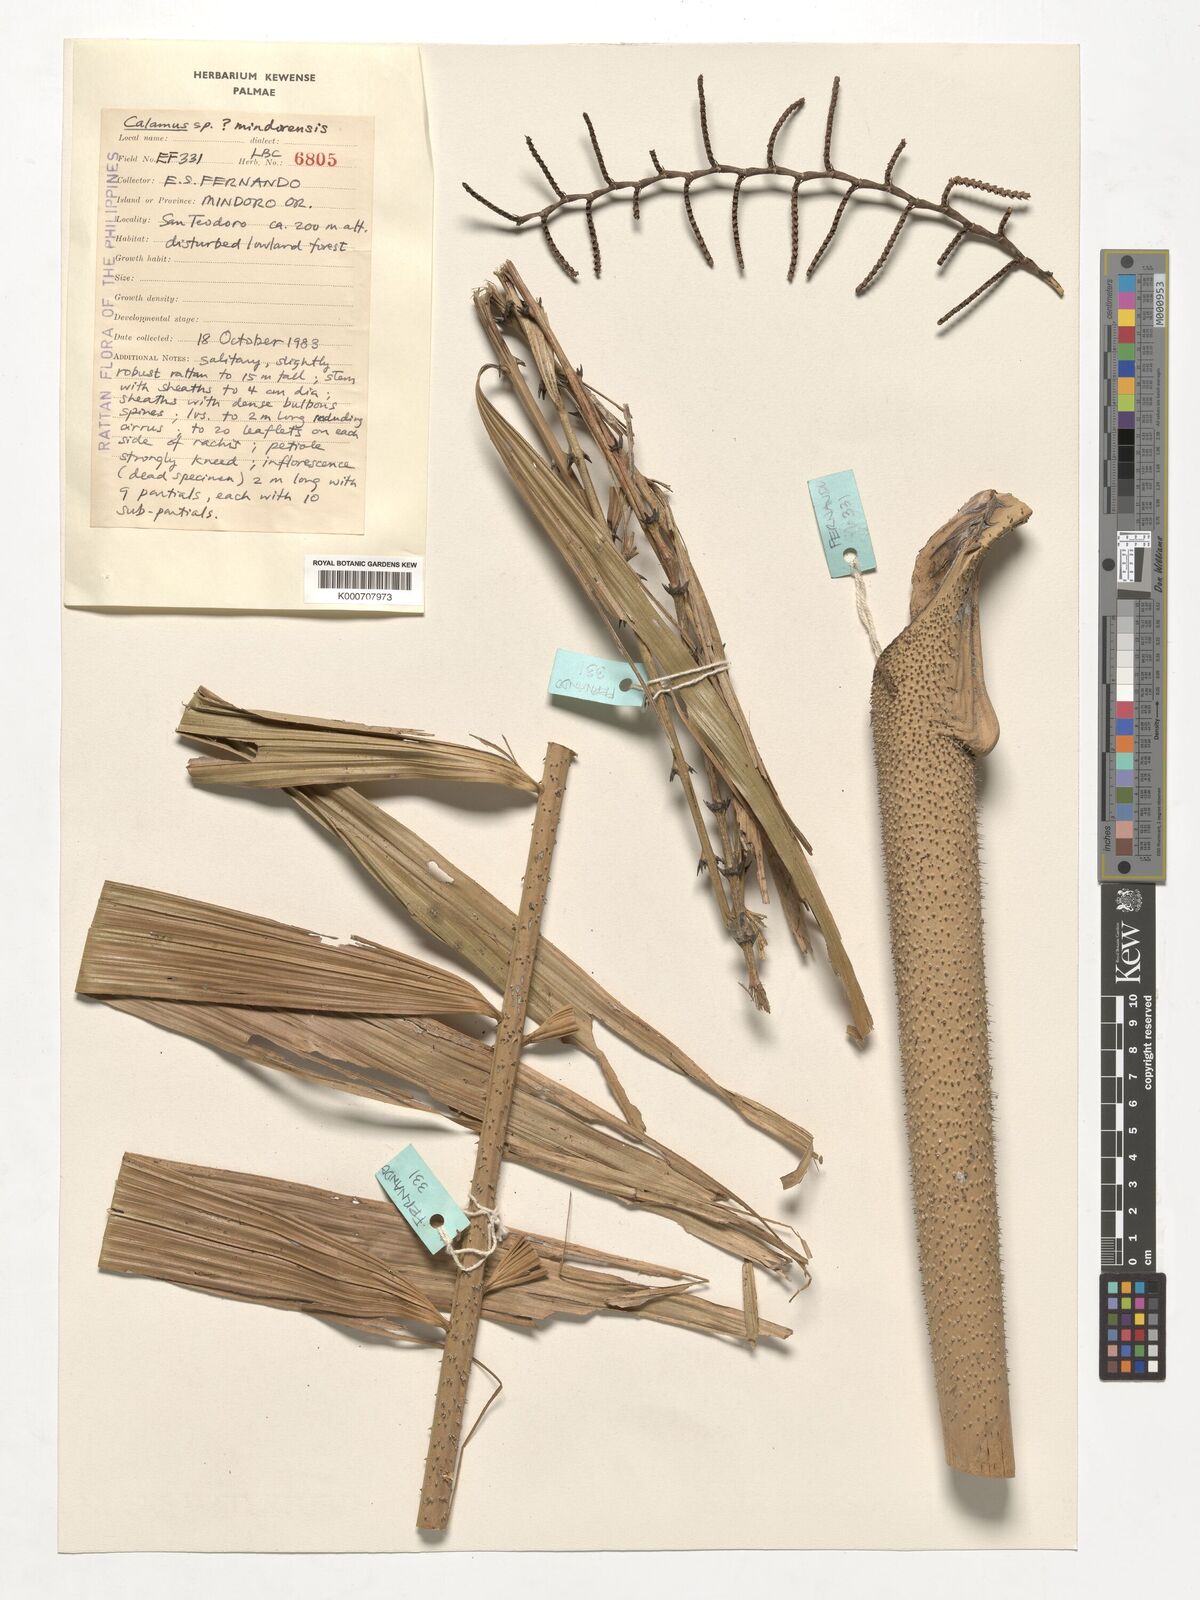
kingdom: Plantae
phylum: Tracheophyta
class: Liliopsida
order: Arecales
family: Arecaceae
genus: Calamus
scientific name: Calamus moseleyanus
